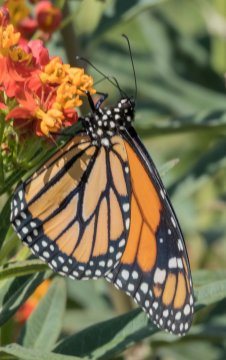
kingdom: Animalia
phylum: Arthropoda
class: Insecta
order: Lepidoptera
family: Nymphalidae
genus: Danaus
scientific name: Danaus plexippus
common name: Monarch
